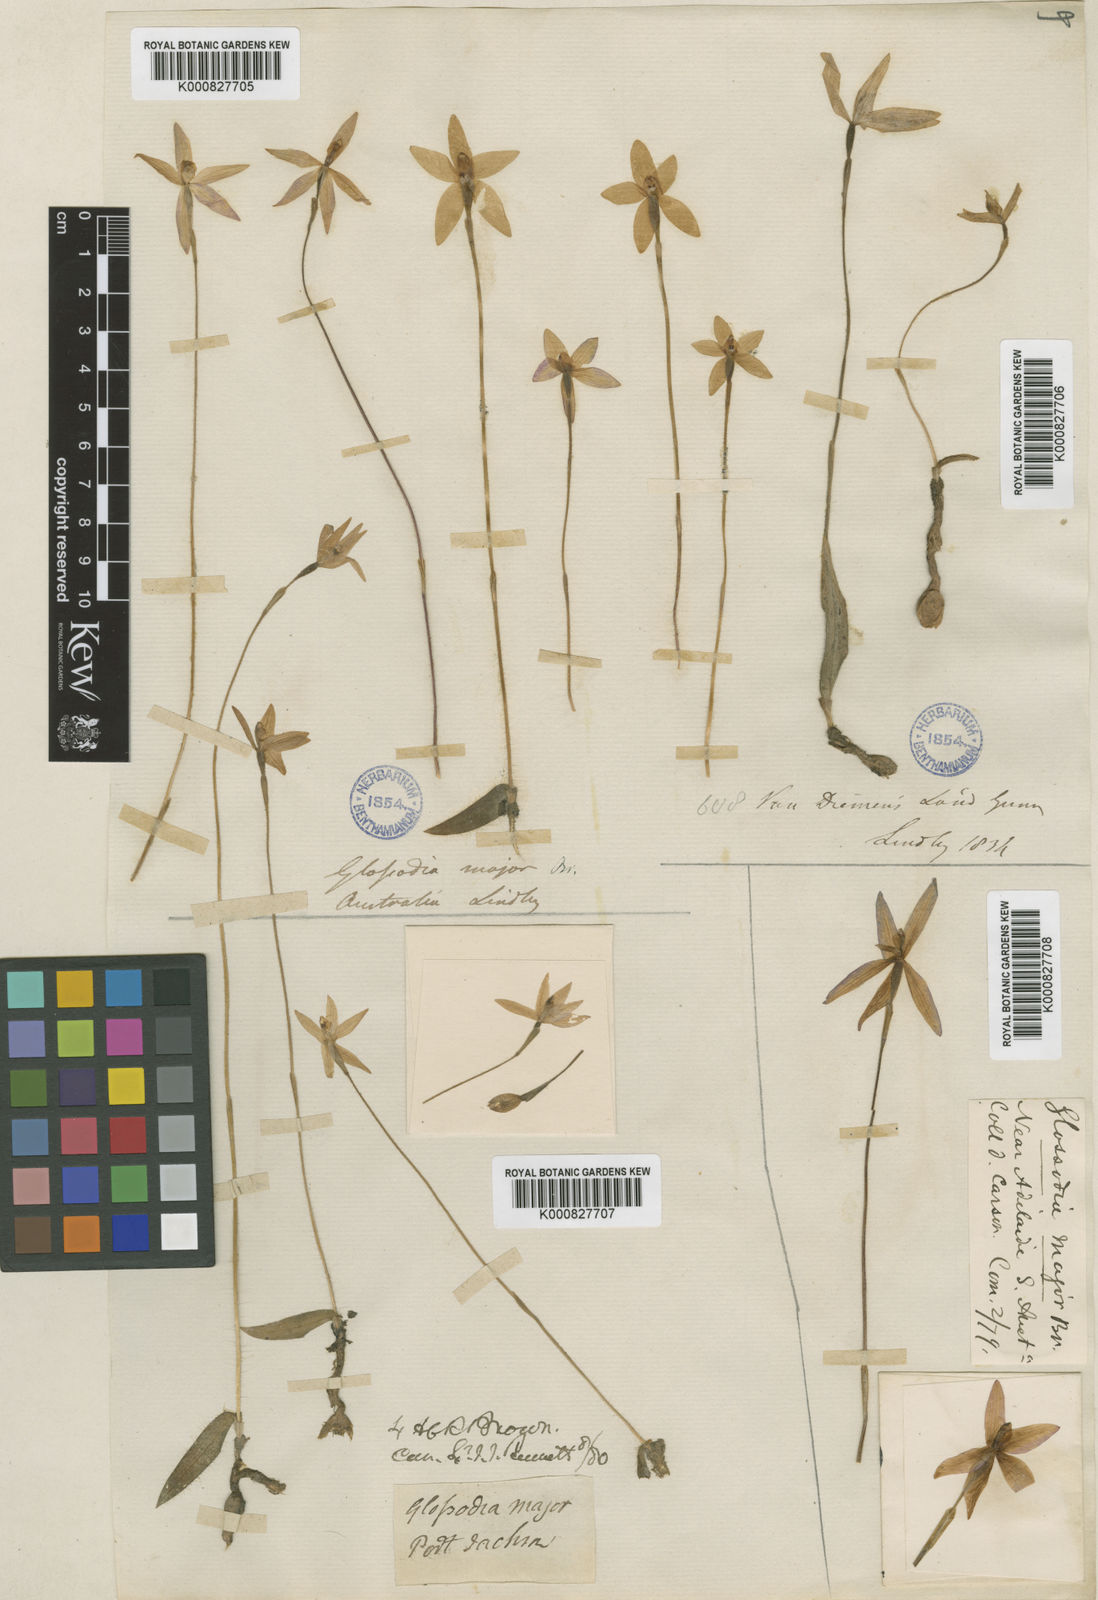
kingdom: Plantae
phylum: Tracheophyta
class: Liliopsida
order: Asparagales
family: Orchidaceae
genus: Caladenia
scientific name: Caladenia major
